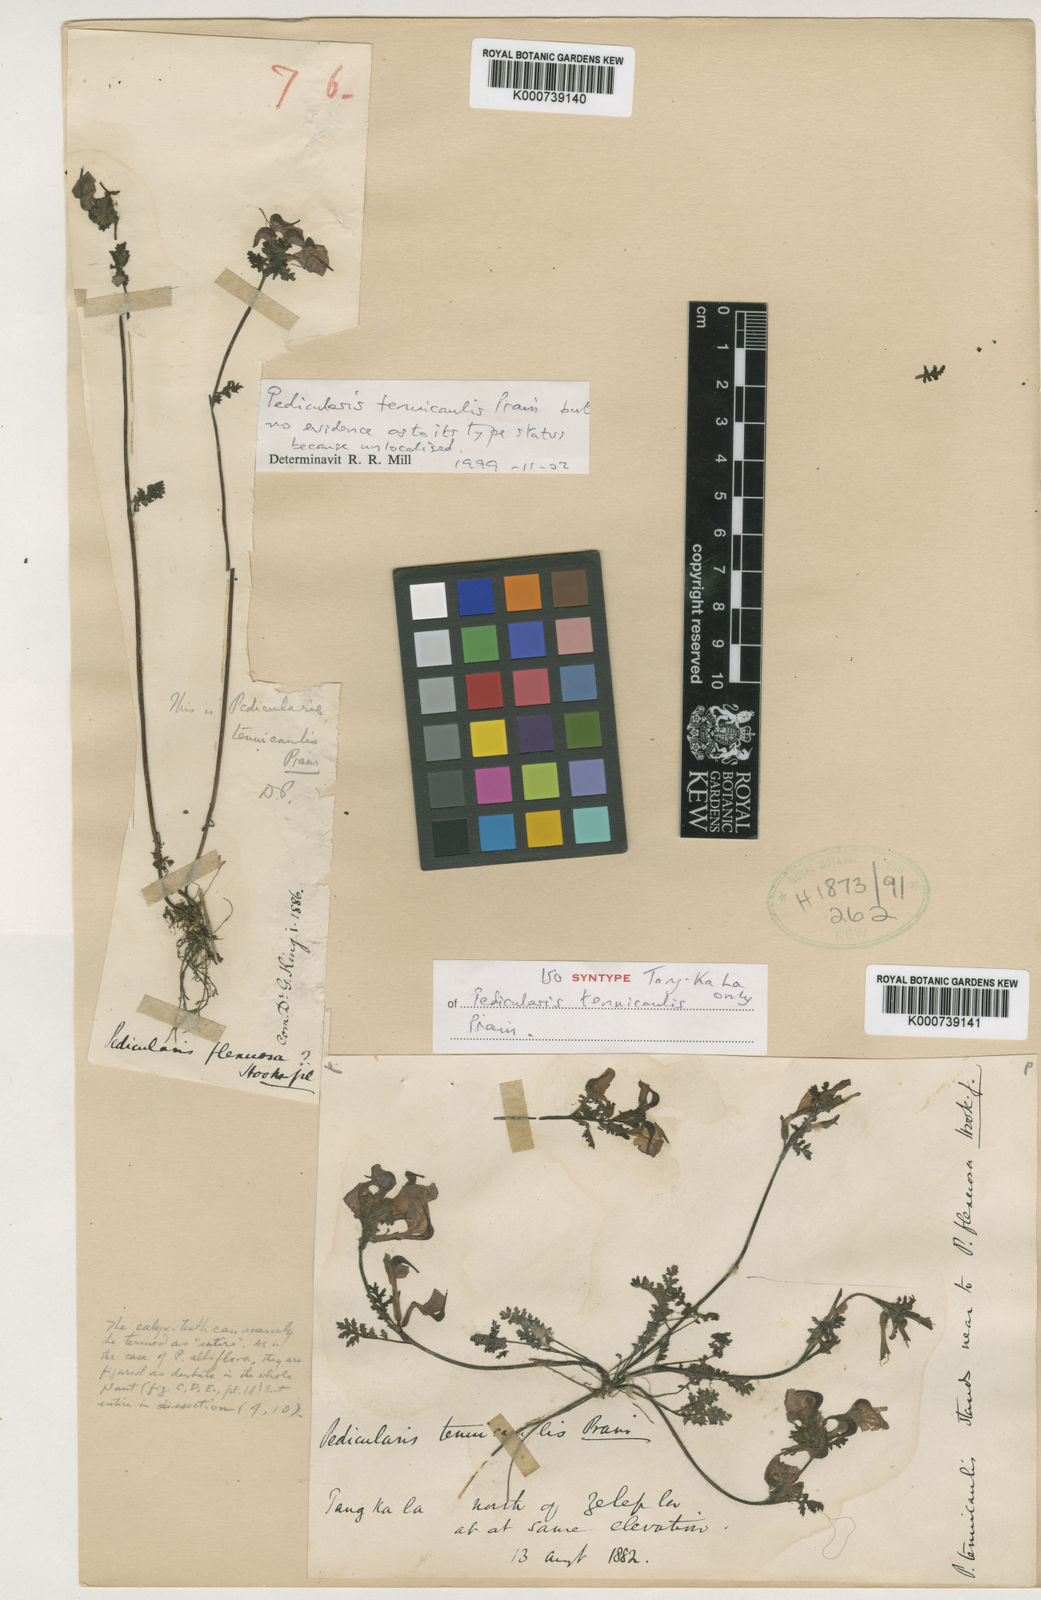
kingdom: Plantae
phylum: Tracheophyta
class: Magnoliopsida
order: Lamiales
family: Orobanchaceae
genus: Pedicularis
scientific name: Pedicularis tenuicaulis
